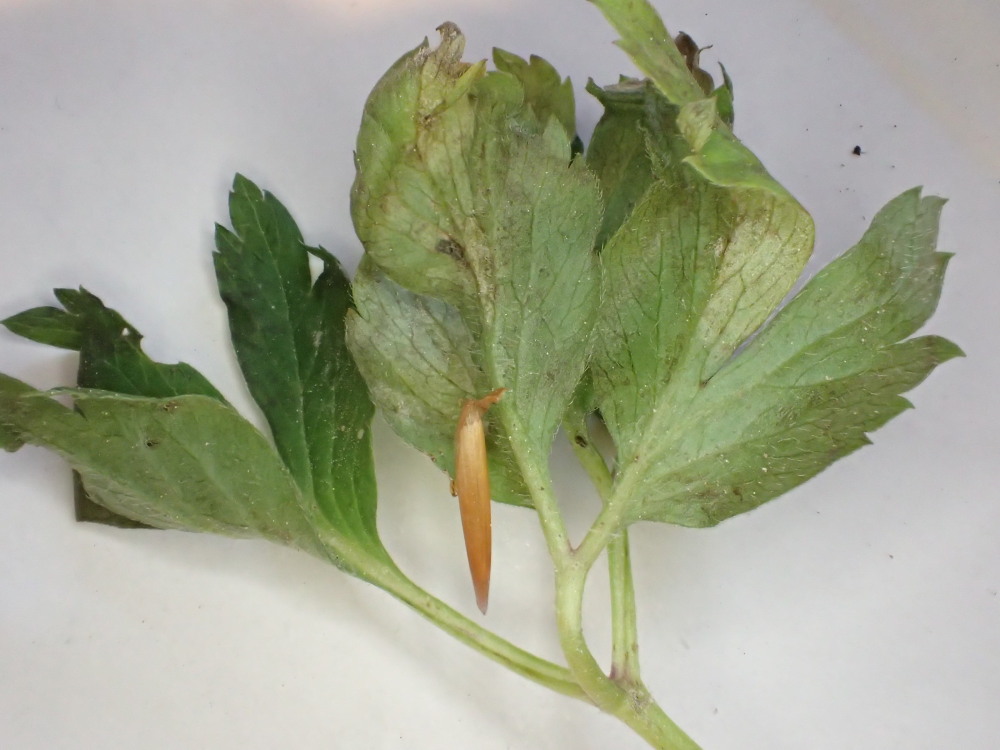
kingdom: Chromista
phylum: Oomycota
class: Peronosporea
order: Peronosporales
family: Peronosporaceae
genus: Plasmoverna
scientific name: Plasmoverna pygmaea
